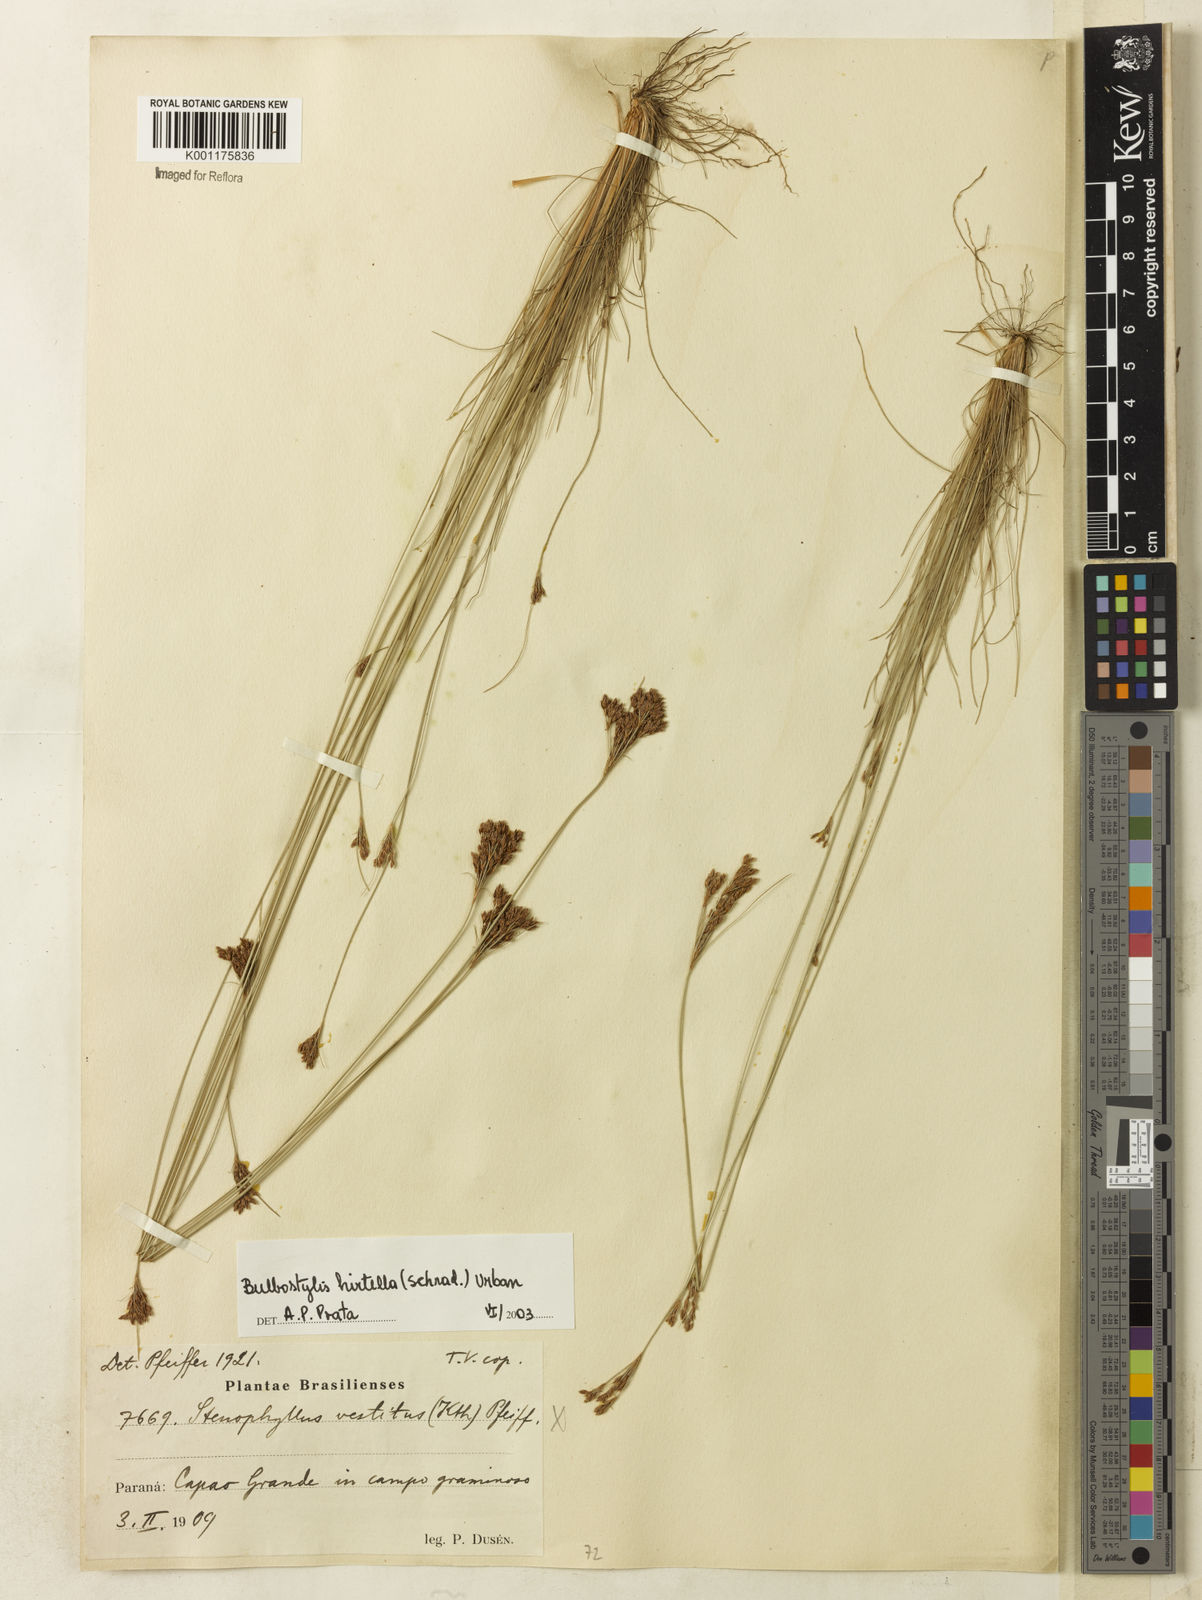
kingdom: Plantae
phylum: Tracheophyta
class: Liliopsida
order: Poales
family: Cyperaceae
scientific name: Cyperaceae
